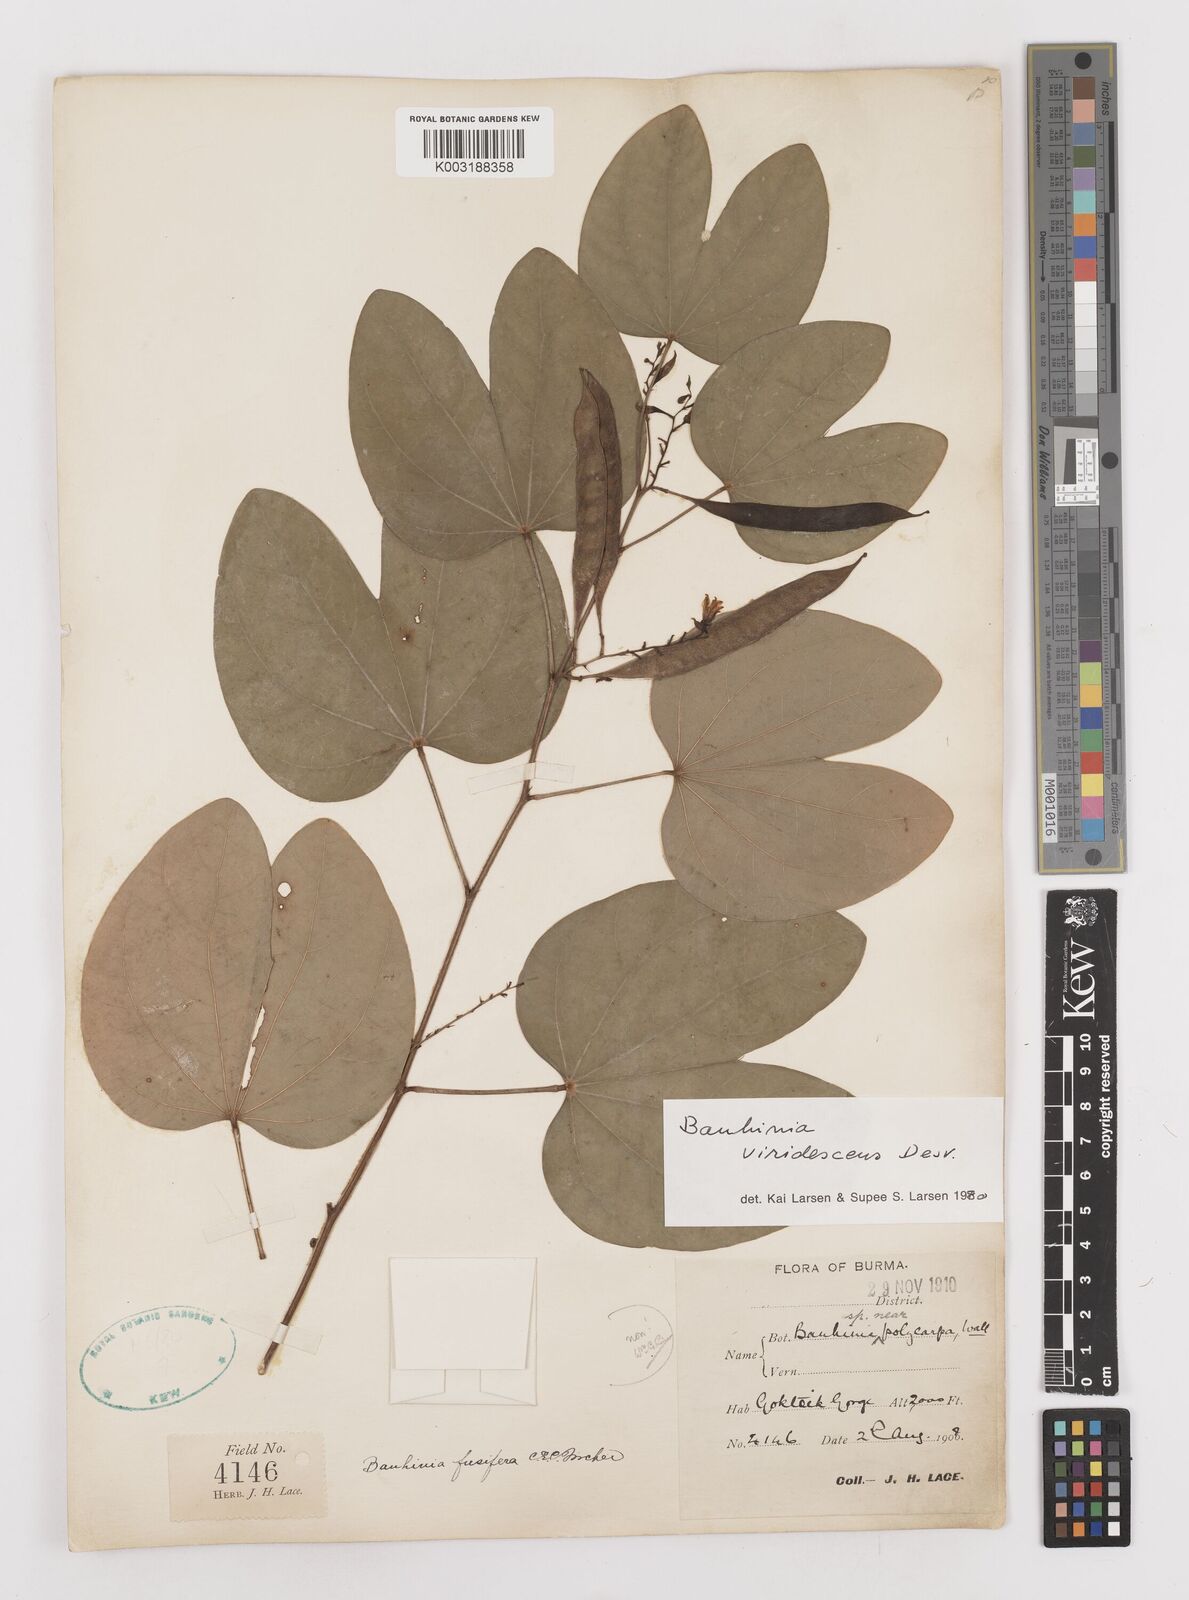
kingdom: Plantae
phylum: Tracheophyta
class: Magnoliopsida
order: Fabales
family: Fabaceae
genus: Bauhinia
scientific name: Bauhinia viridescens
